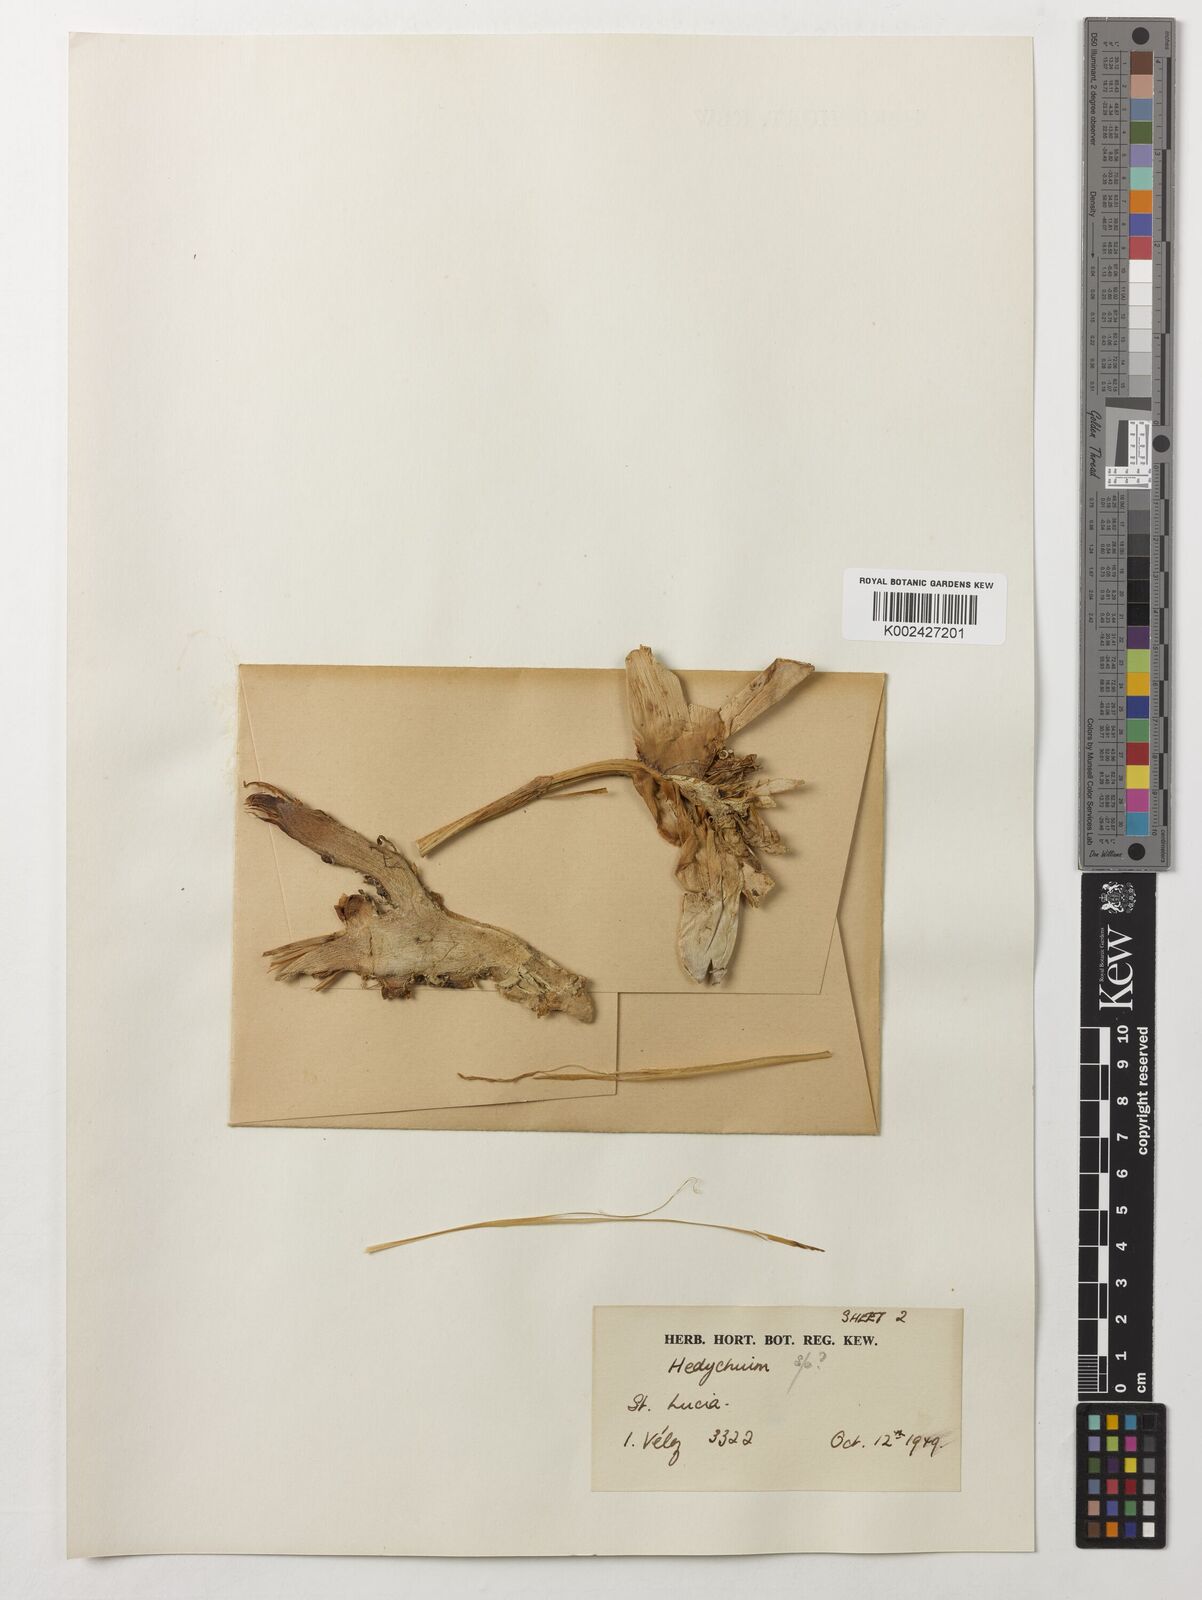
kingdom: Plantae
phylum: Tracheophyta
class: Liliopsida
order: Zingiberales
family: Zingiberaceae
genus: Hedychium
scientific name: Hedychium
